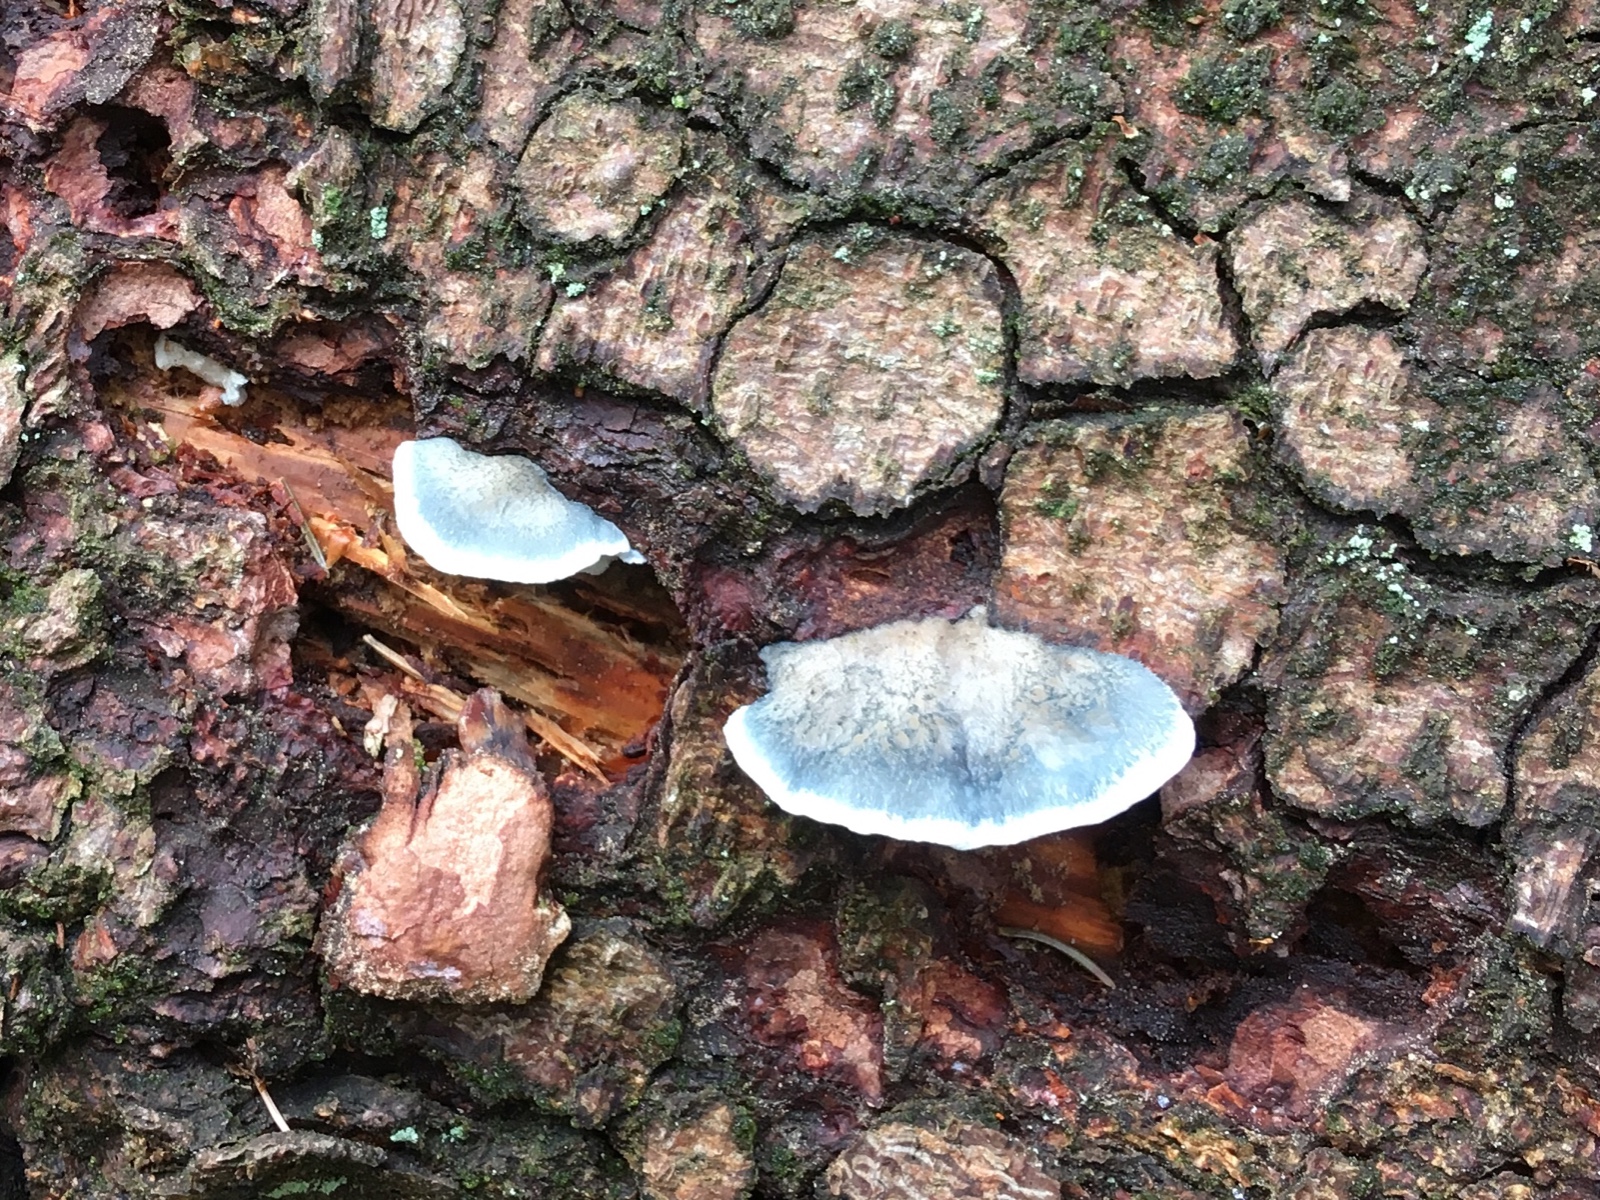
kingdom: Fungi
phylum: Basidiomycota
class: Agaricomycetes
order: Polyporales
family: Polyporaceae
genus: Cyanosporus
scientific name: Cyanosporus caesius
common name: blålig kødporesvamp
